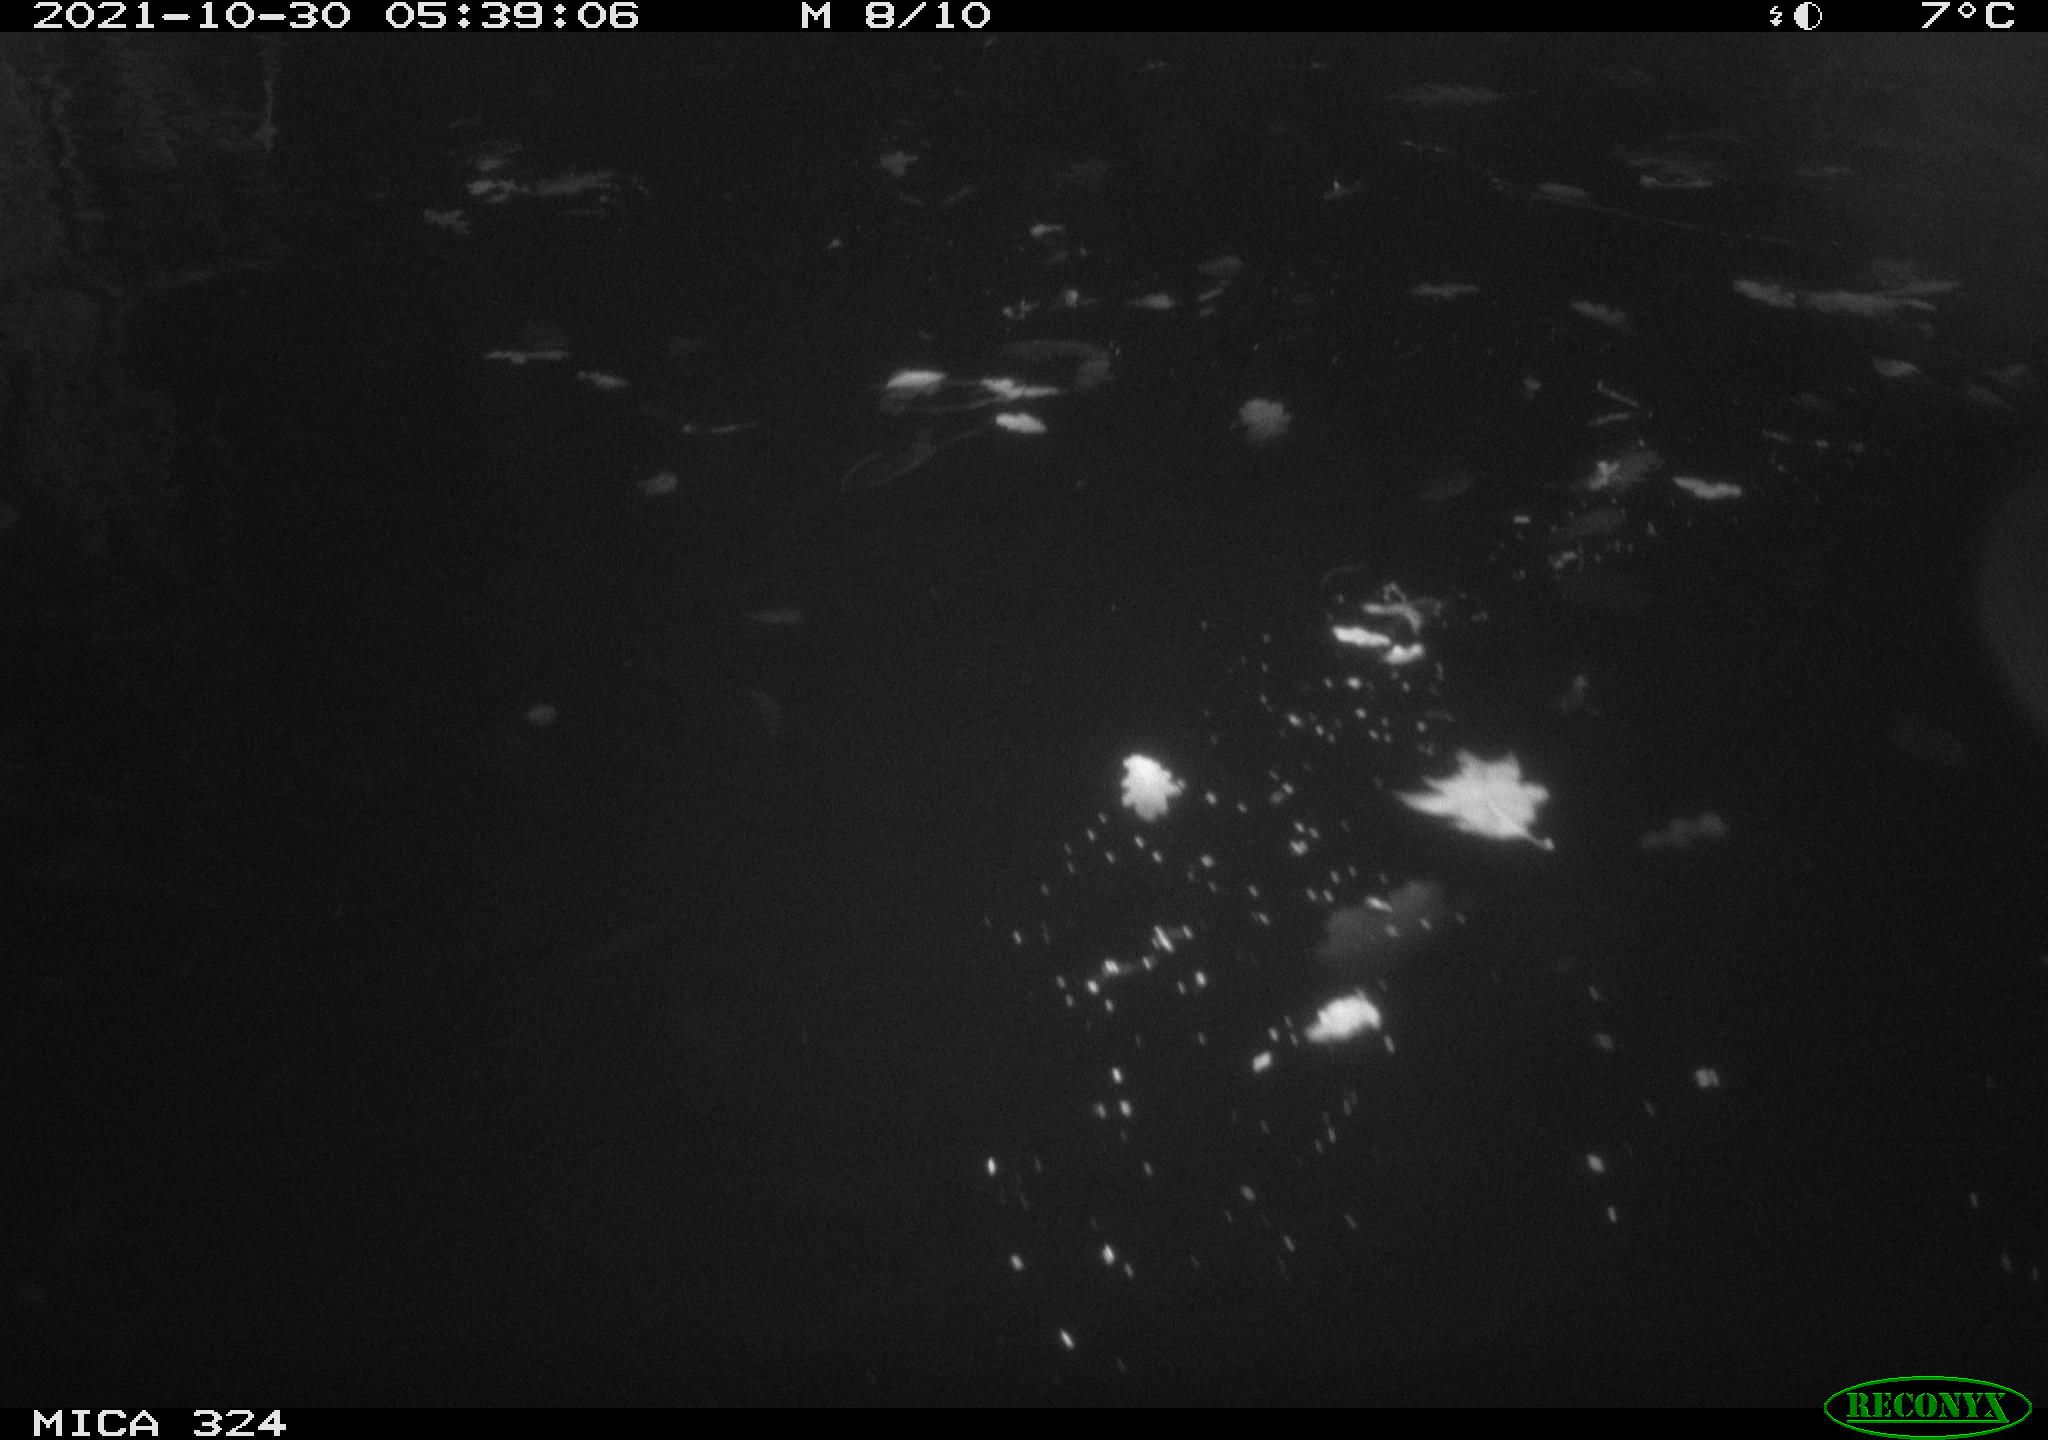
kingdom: Animalia
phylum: Chordata
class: Mammalia
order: Rodentia
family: Cricetidae
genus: Ondatra
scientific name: Ondatra zibethicus
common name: Muskrat
